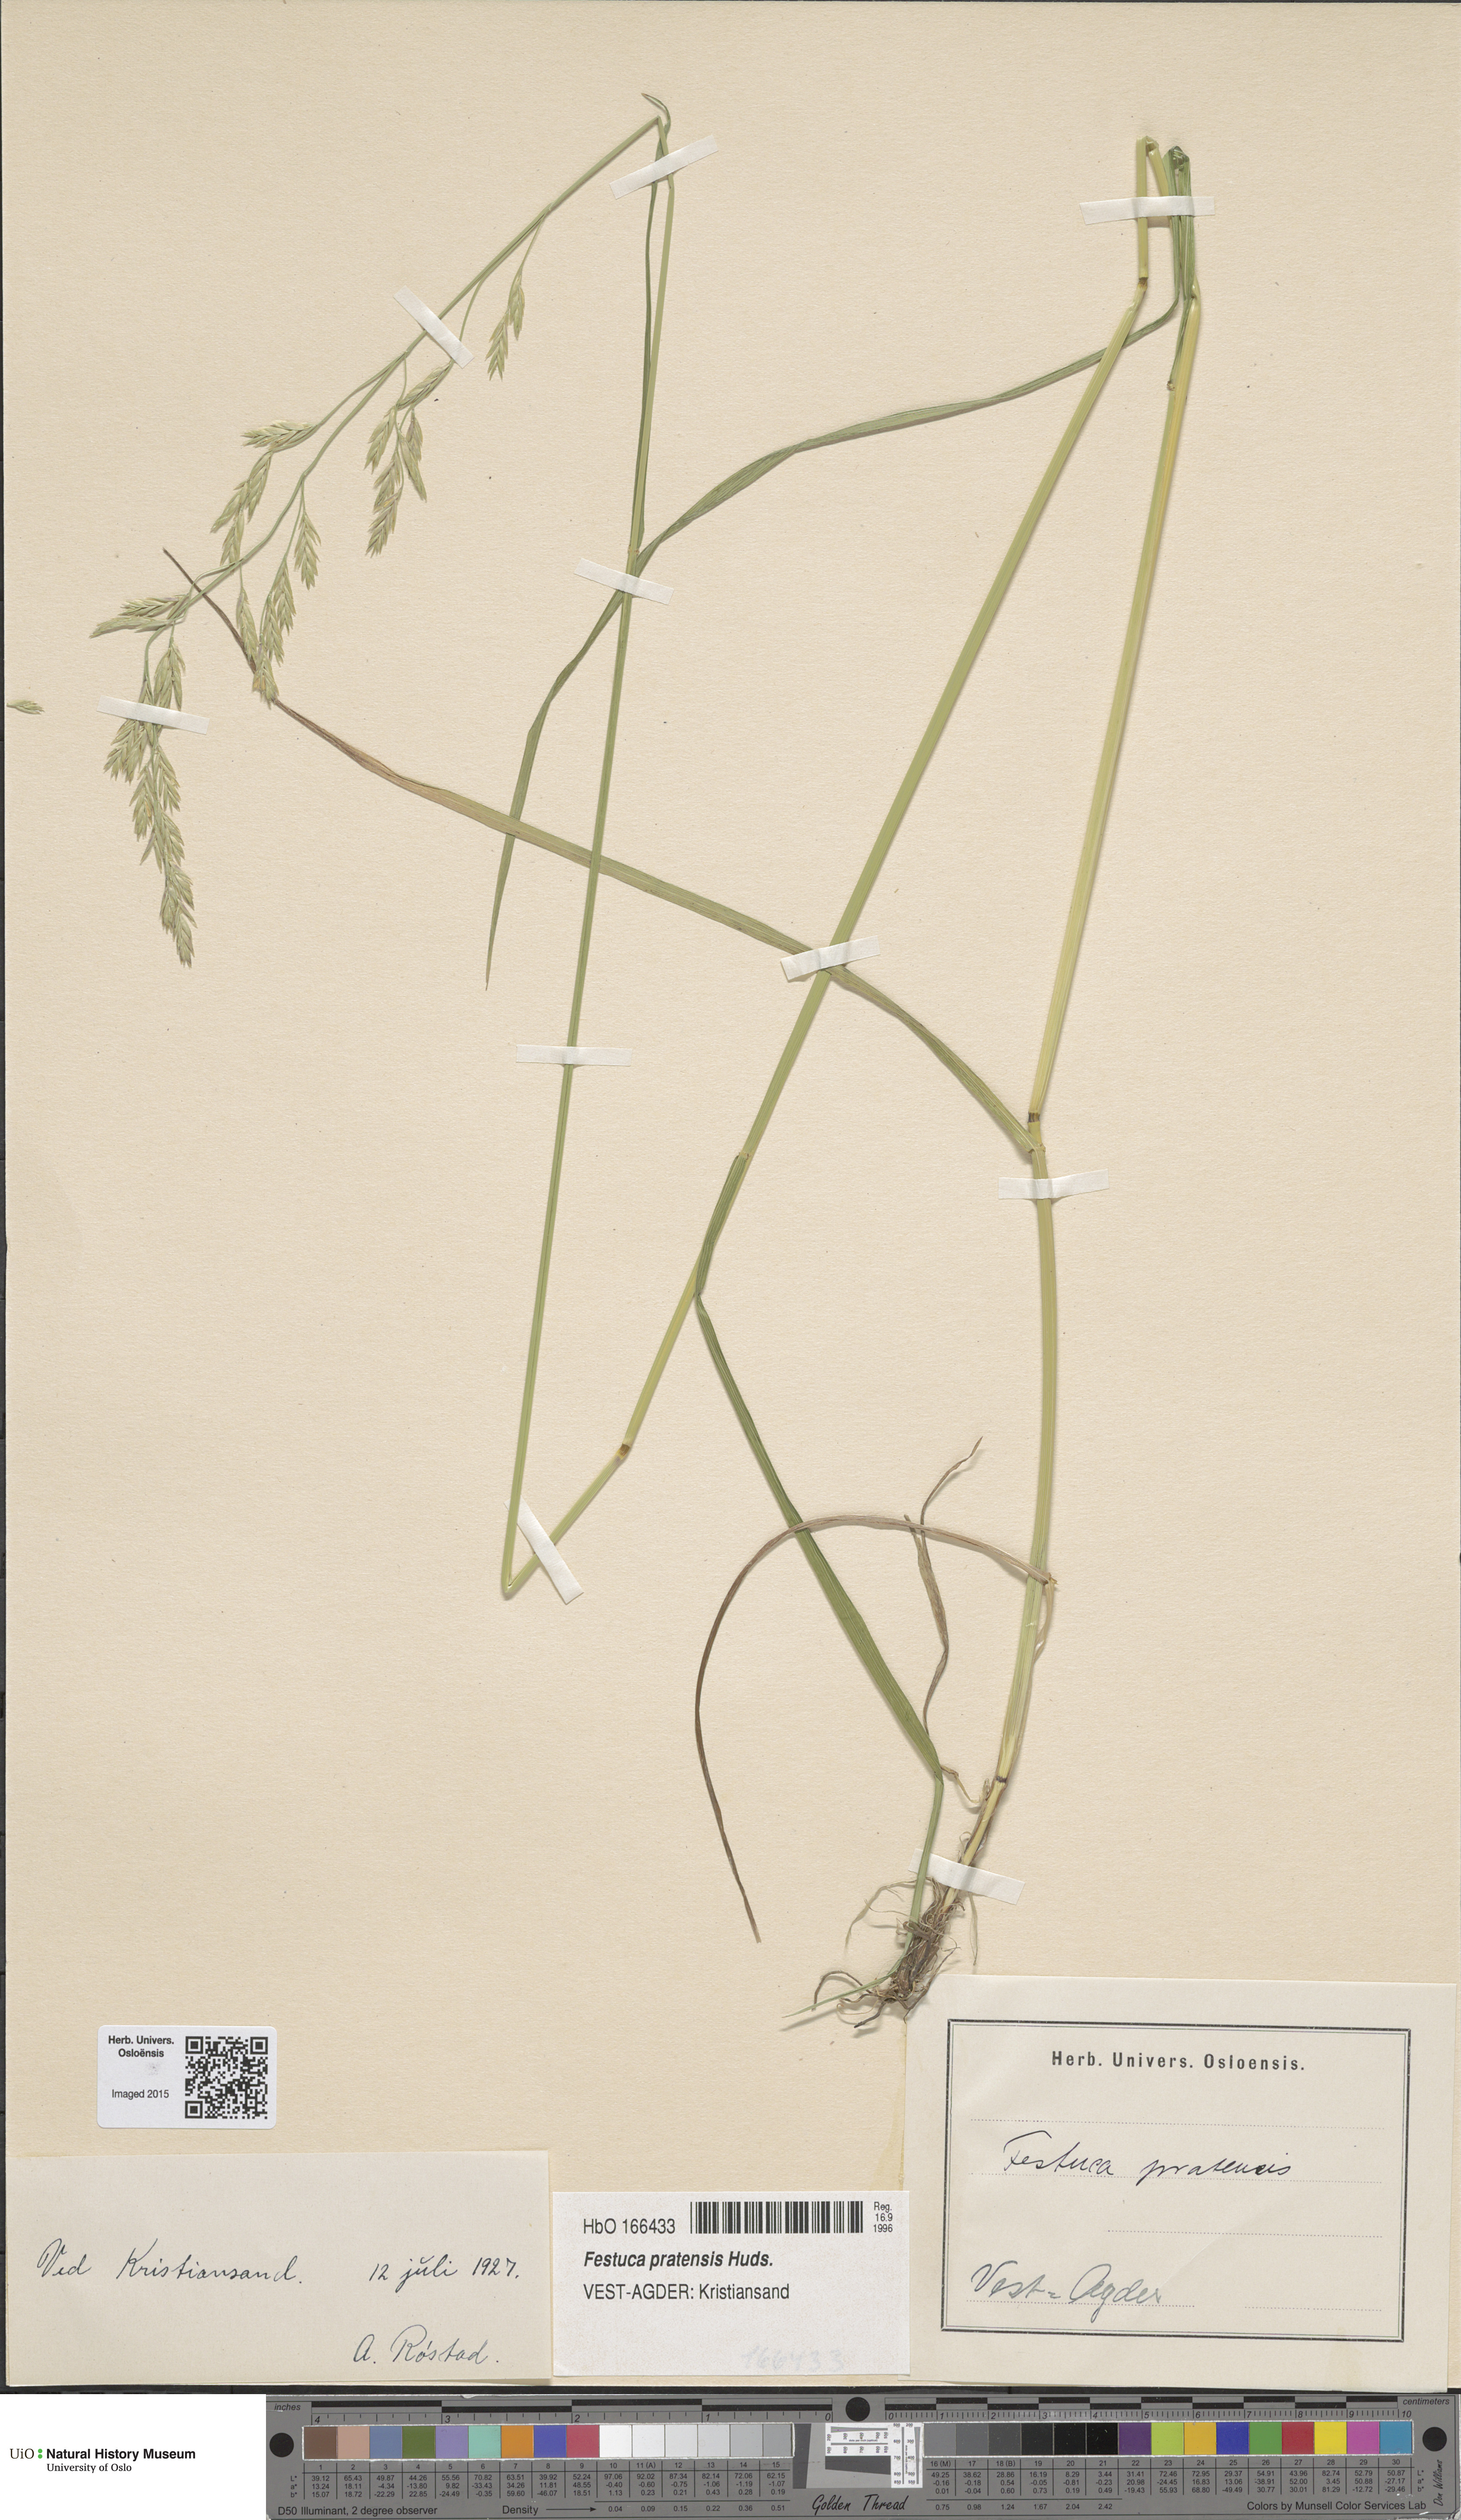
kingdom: Plantae
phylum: Tracheophyta
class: Liliopsida
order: Poales
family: Poaceae
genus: Lolium
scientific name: Lolium pratense
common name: Dover grass
